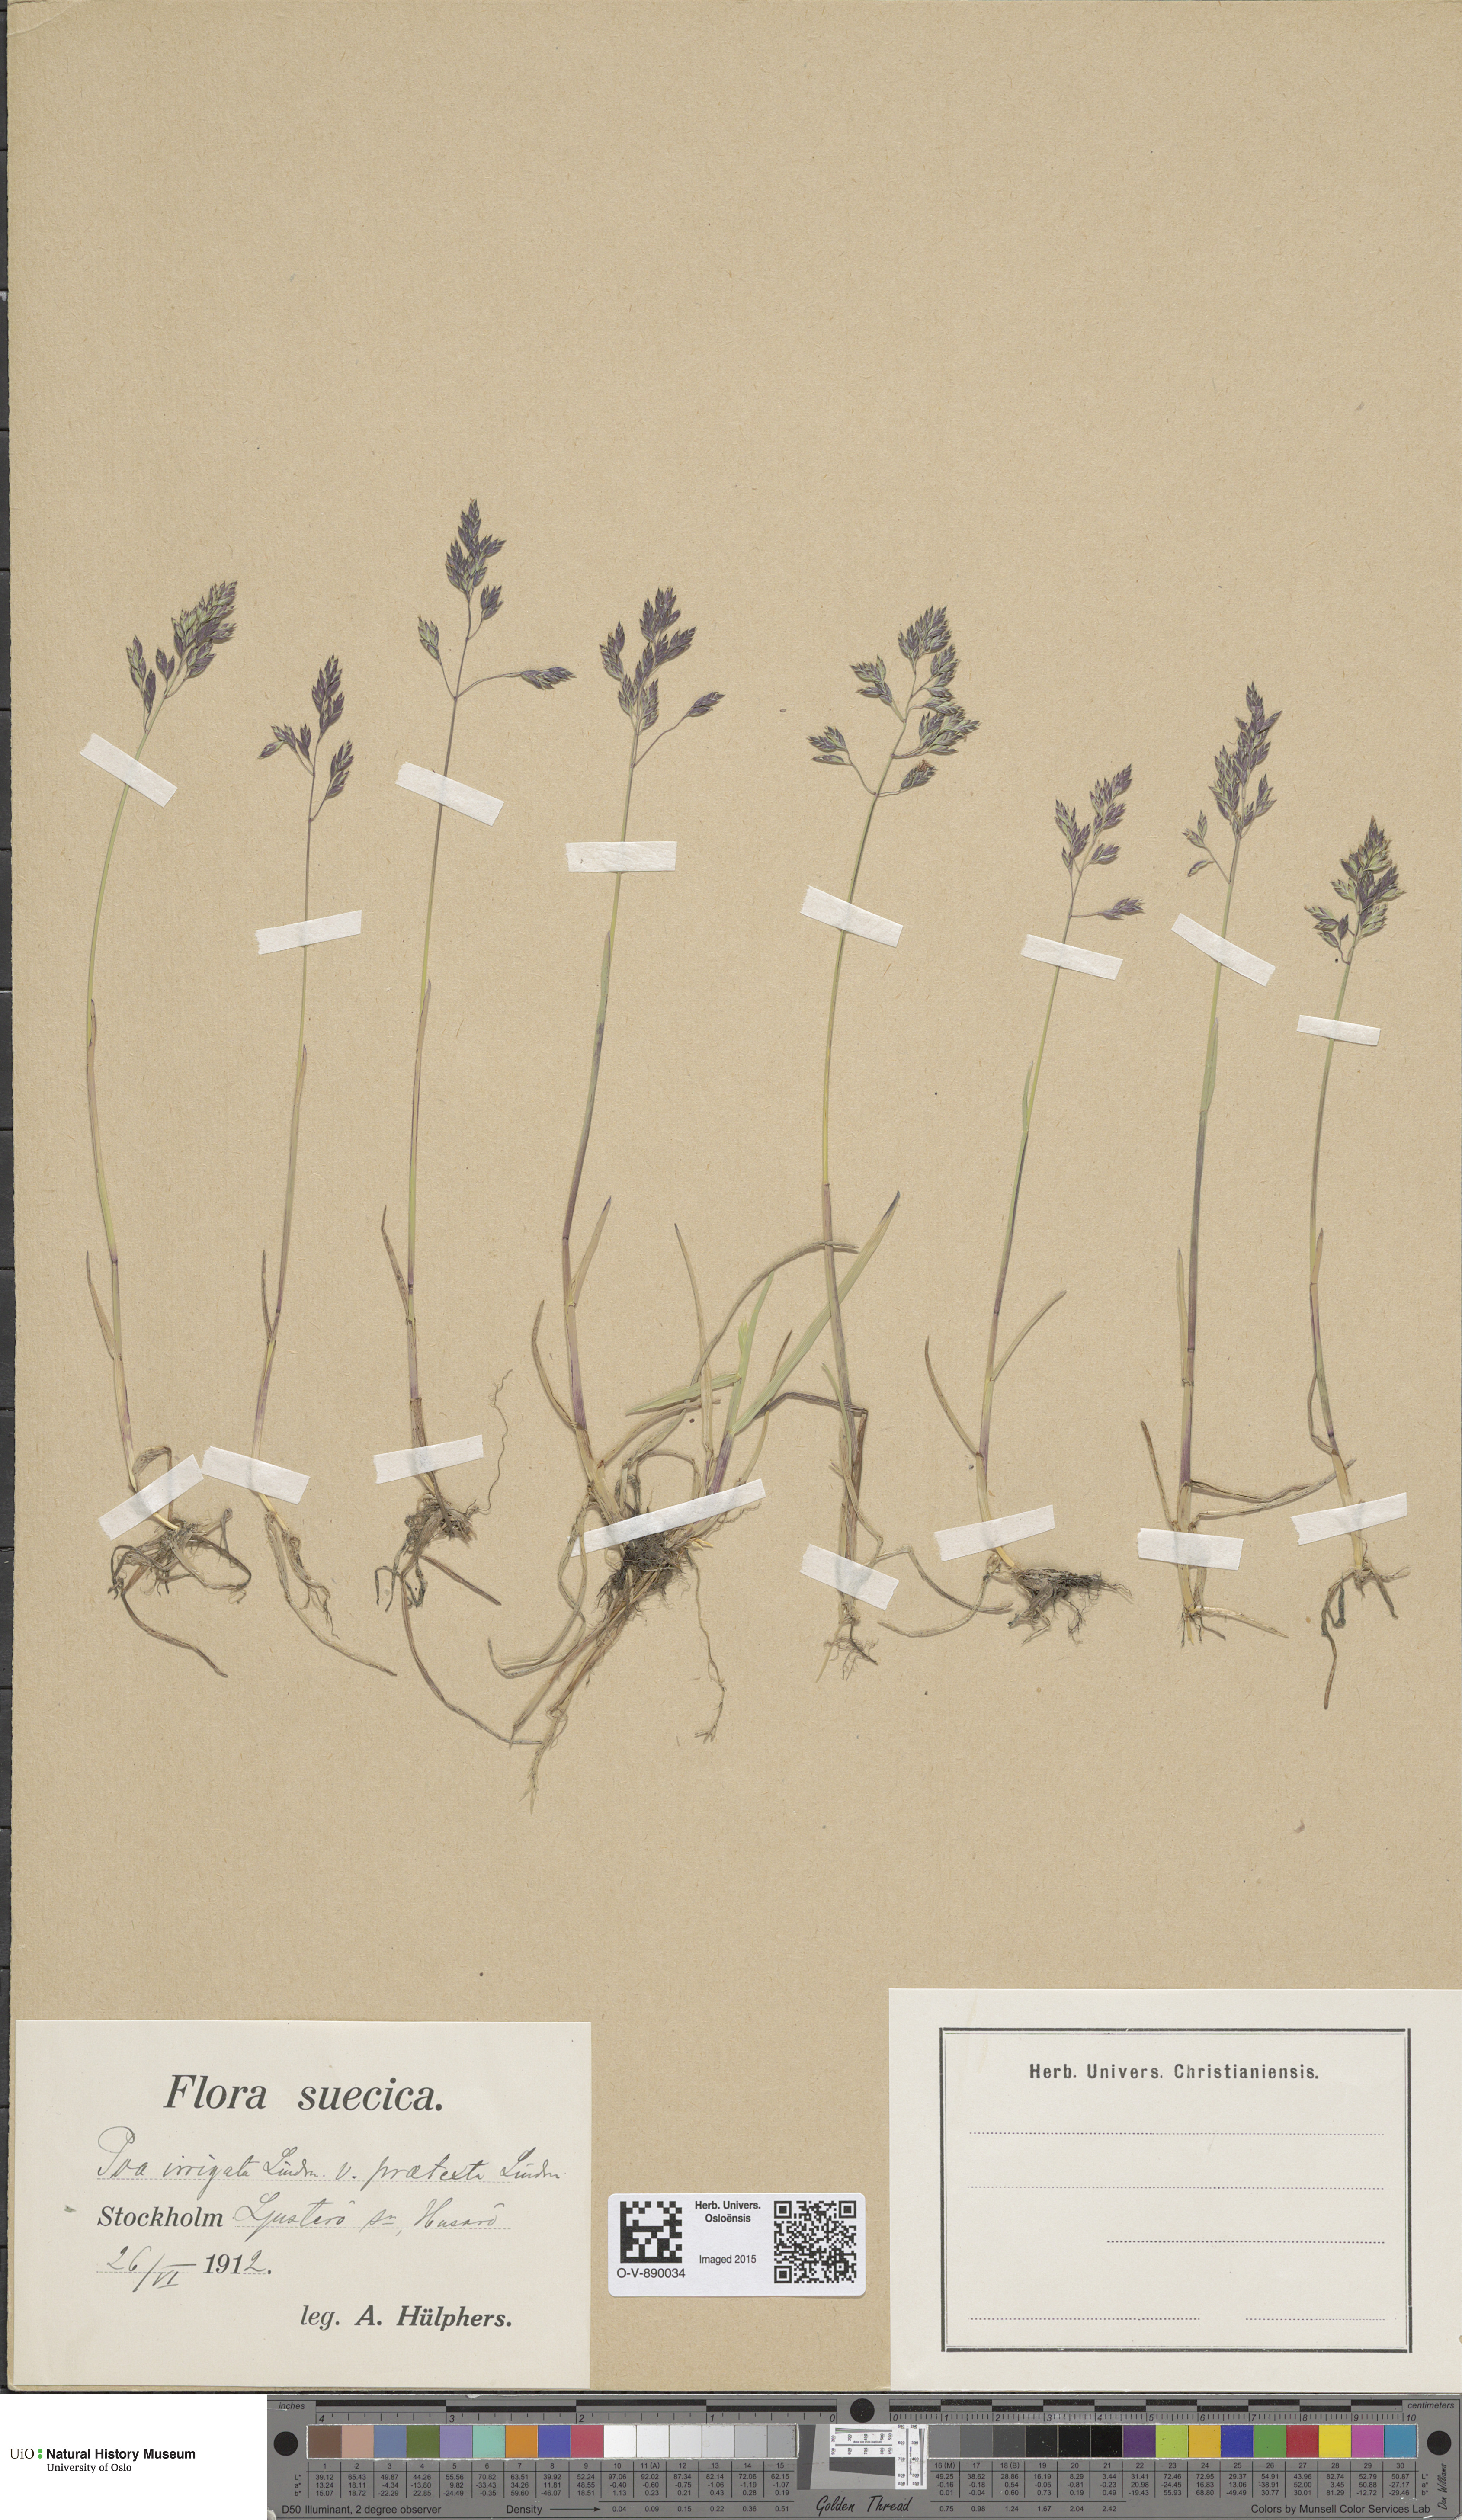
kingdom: Plantae
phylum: Tracheophyta
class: Liliopsida
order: Poales
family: Poaceae
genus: Poa
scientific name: Poa humilis
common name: Spreading meadow-grass
